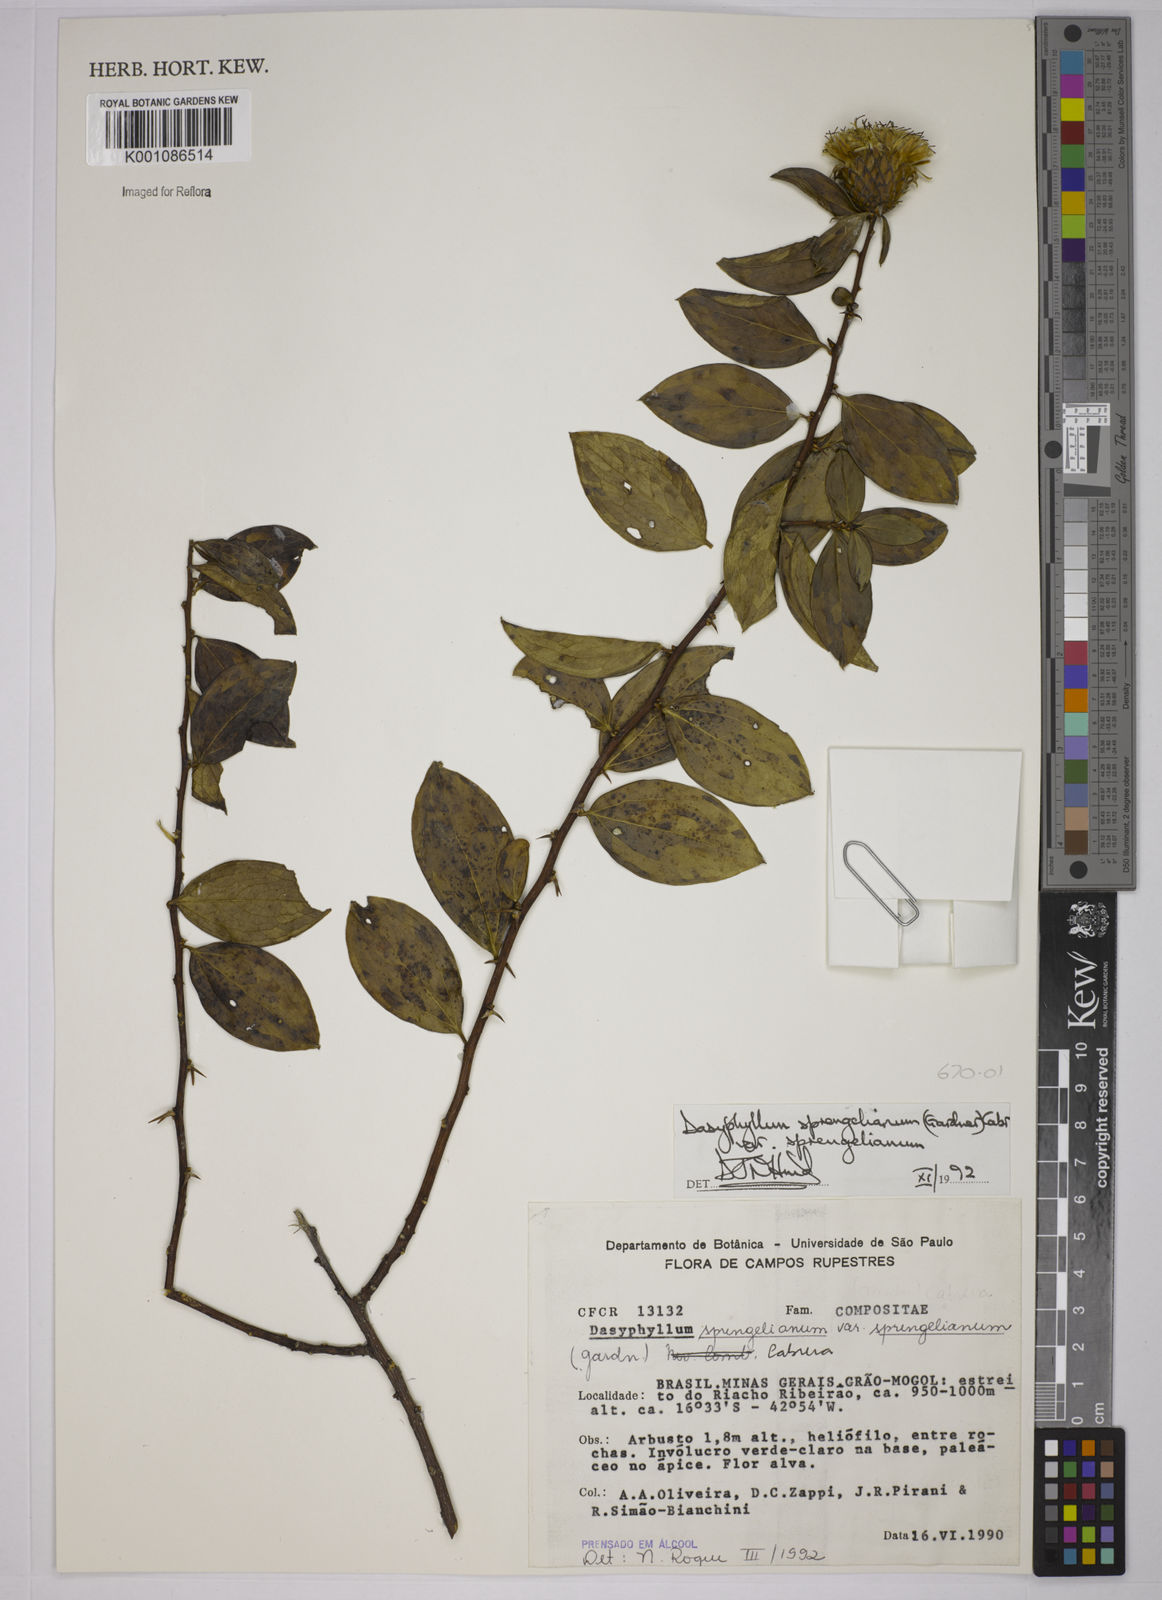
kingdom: Plantae
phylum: Tracheophyta
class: Magnoliopsida
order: Asterales
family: Asteraceae
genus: Dasyphyllum
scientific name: Dasyphyllum sprengelianum
